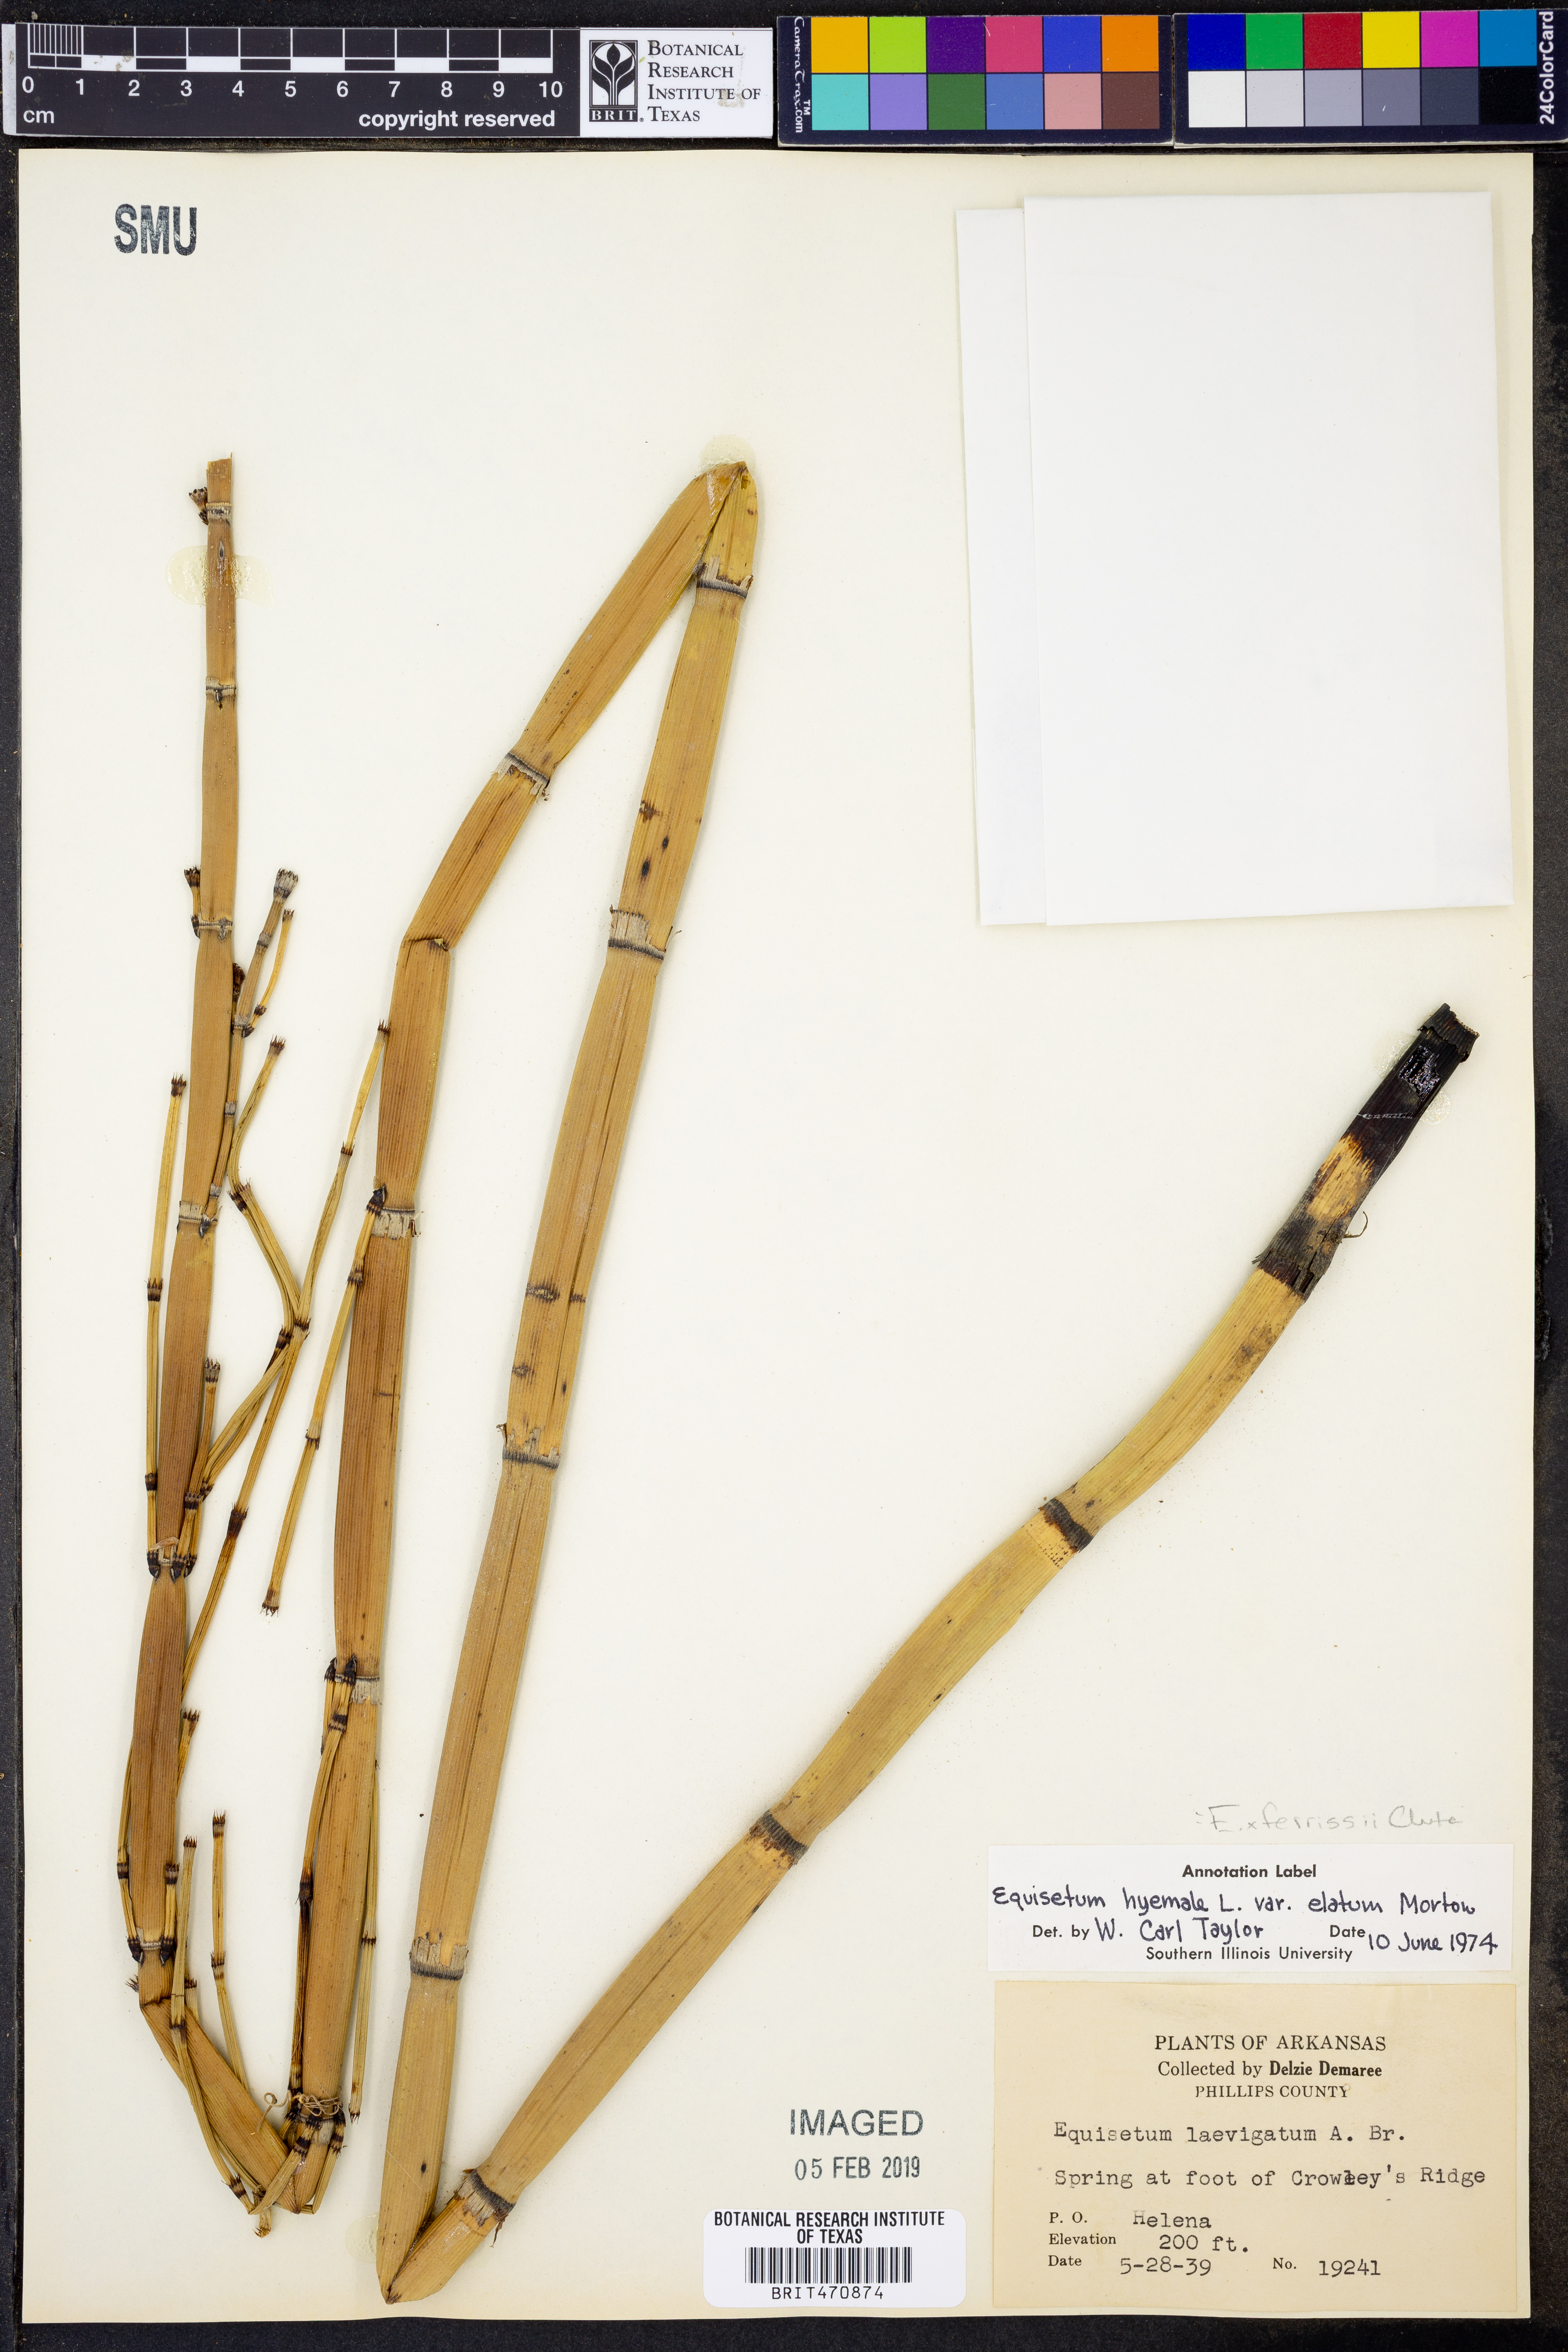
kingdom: Plantae
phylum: Tracheophyta
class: Polypodiopsida
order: Equisetales
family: Equisetaceae
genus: Equisetum
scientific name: Equisetum
